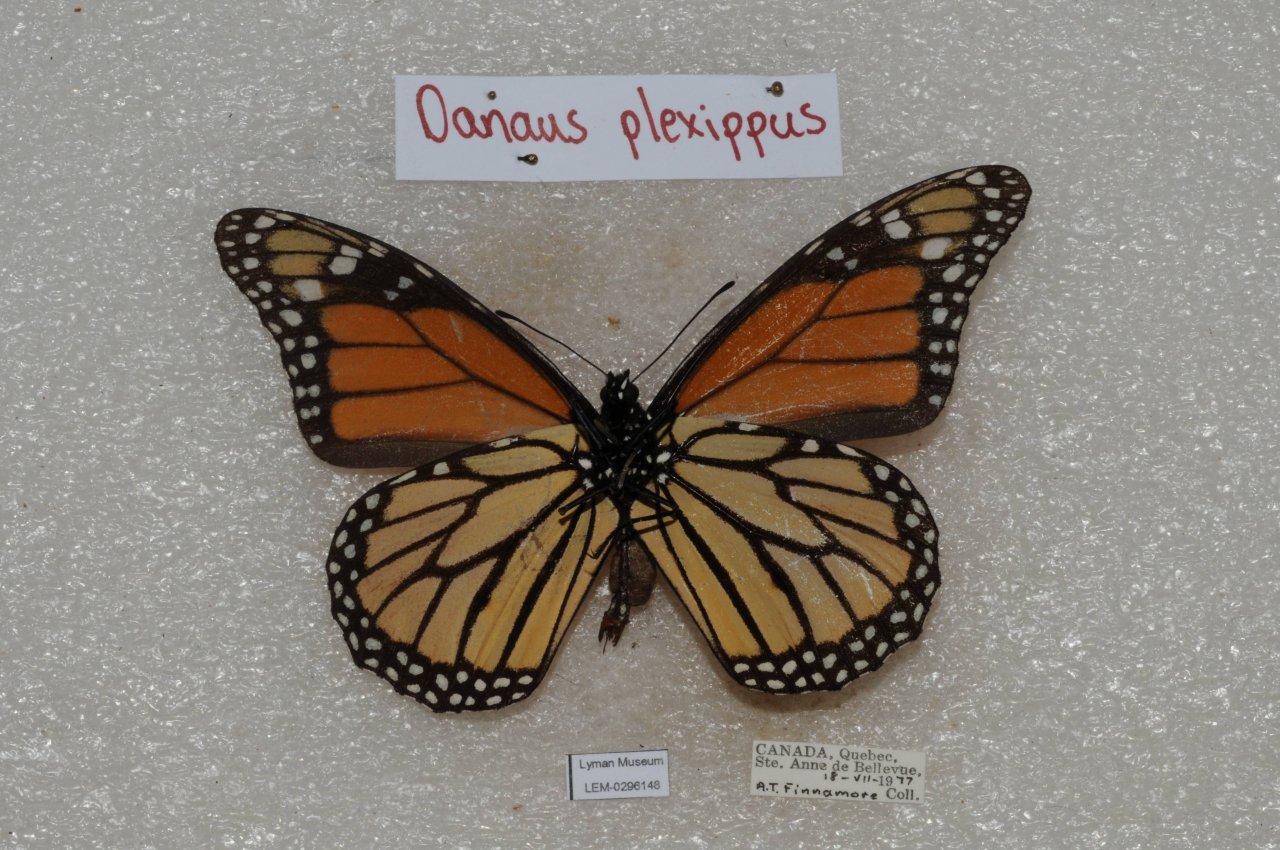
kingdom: Animalia
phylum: Arthropoda
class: Insecta
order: Lepidoptera
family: Nymphalidae
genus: Danaus
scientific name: Danaus plexippus
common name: Monarch
